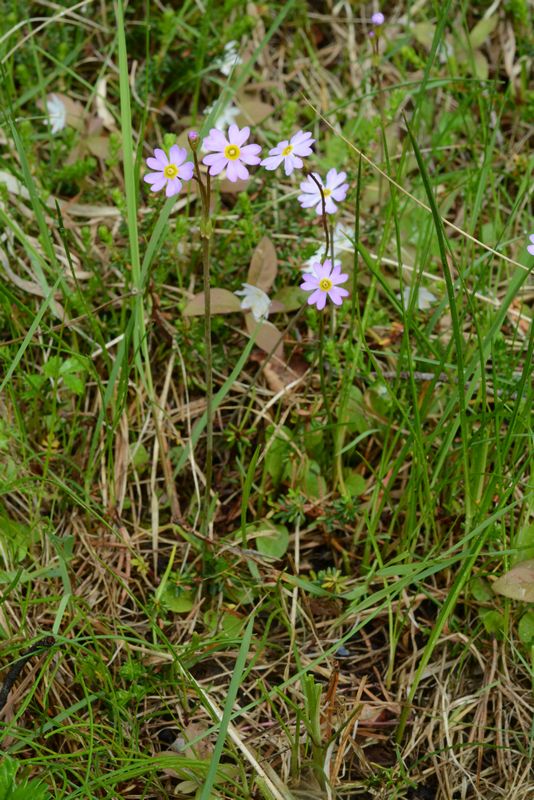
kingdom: Plantae
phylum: Tracheophyta
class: Magnoliopsida
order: Ericales
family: Primulaceae
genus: Primula
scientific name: Primula nutans
